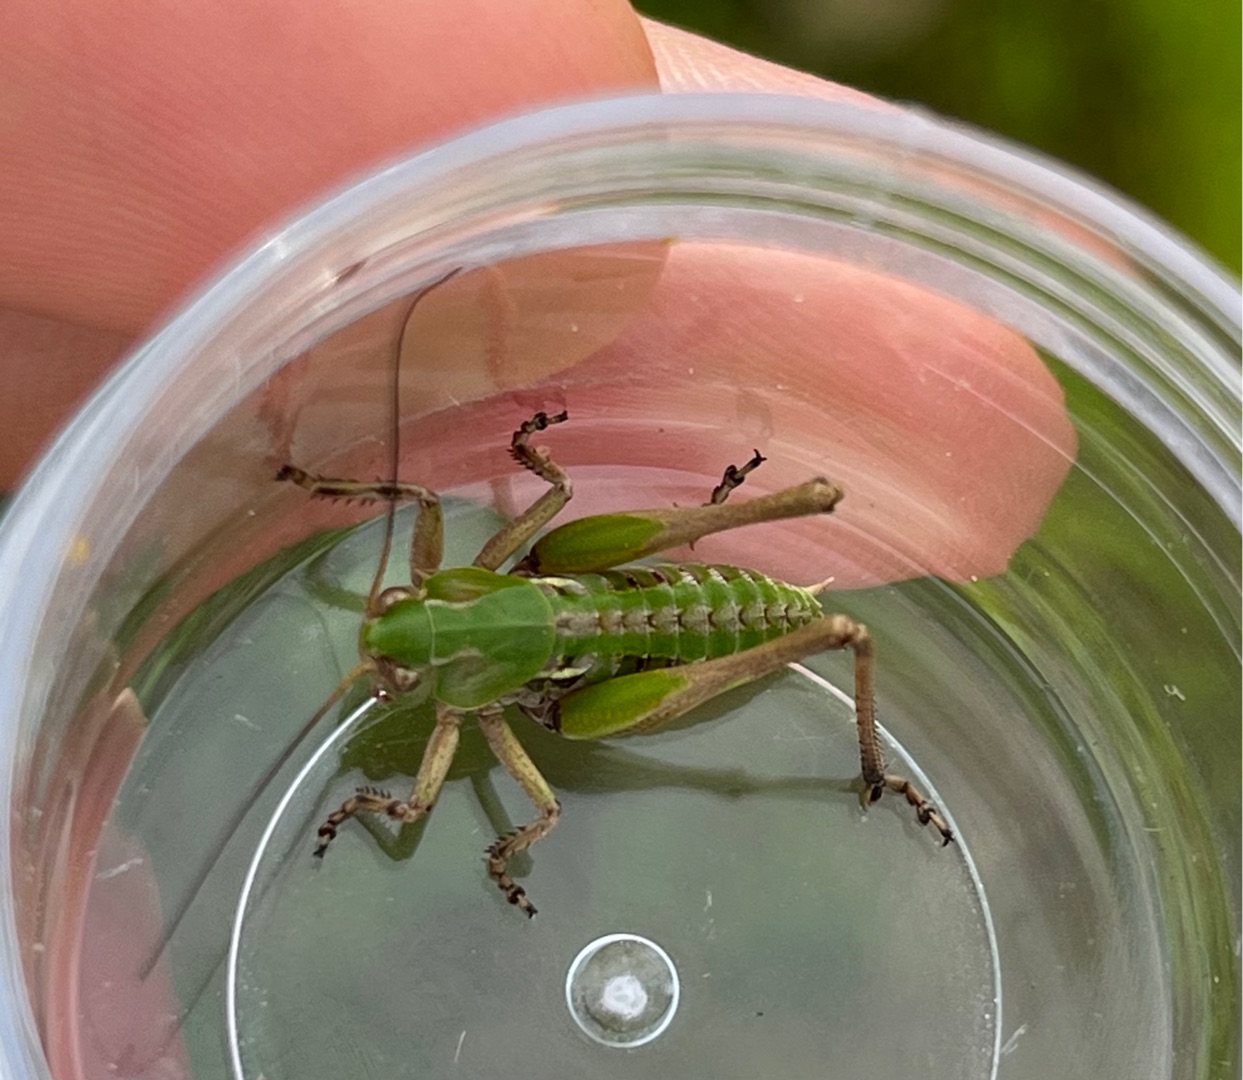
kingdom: Animalia
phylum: Arthropoda
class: Insecta
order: Orthoptera
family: Tettigoniidae
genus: Decticus
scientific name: Decticus verrucivorus
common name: Vortebider
